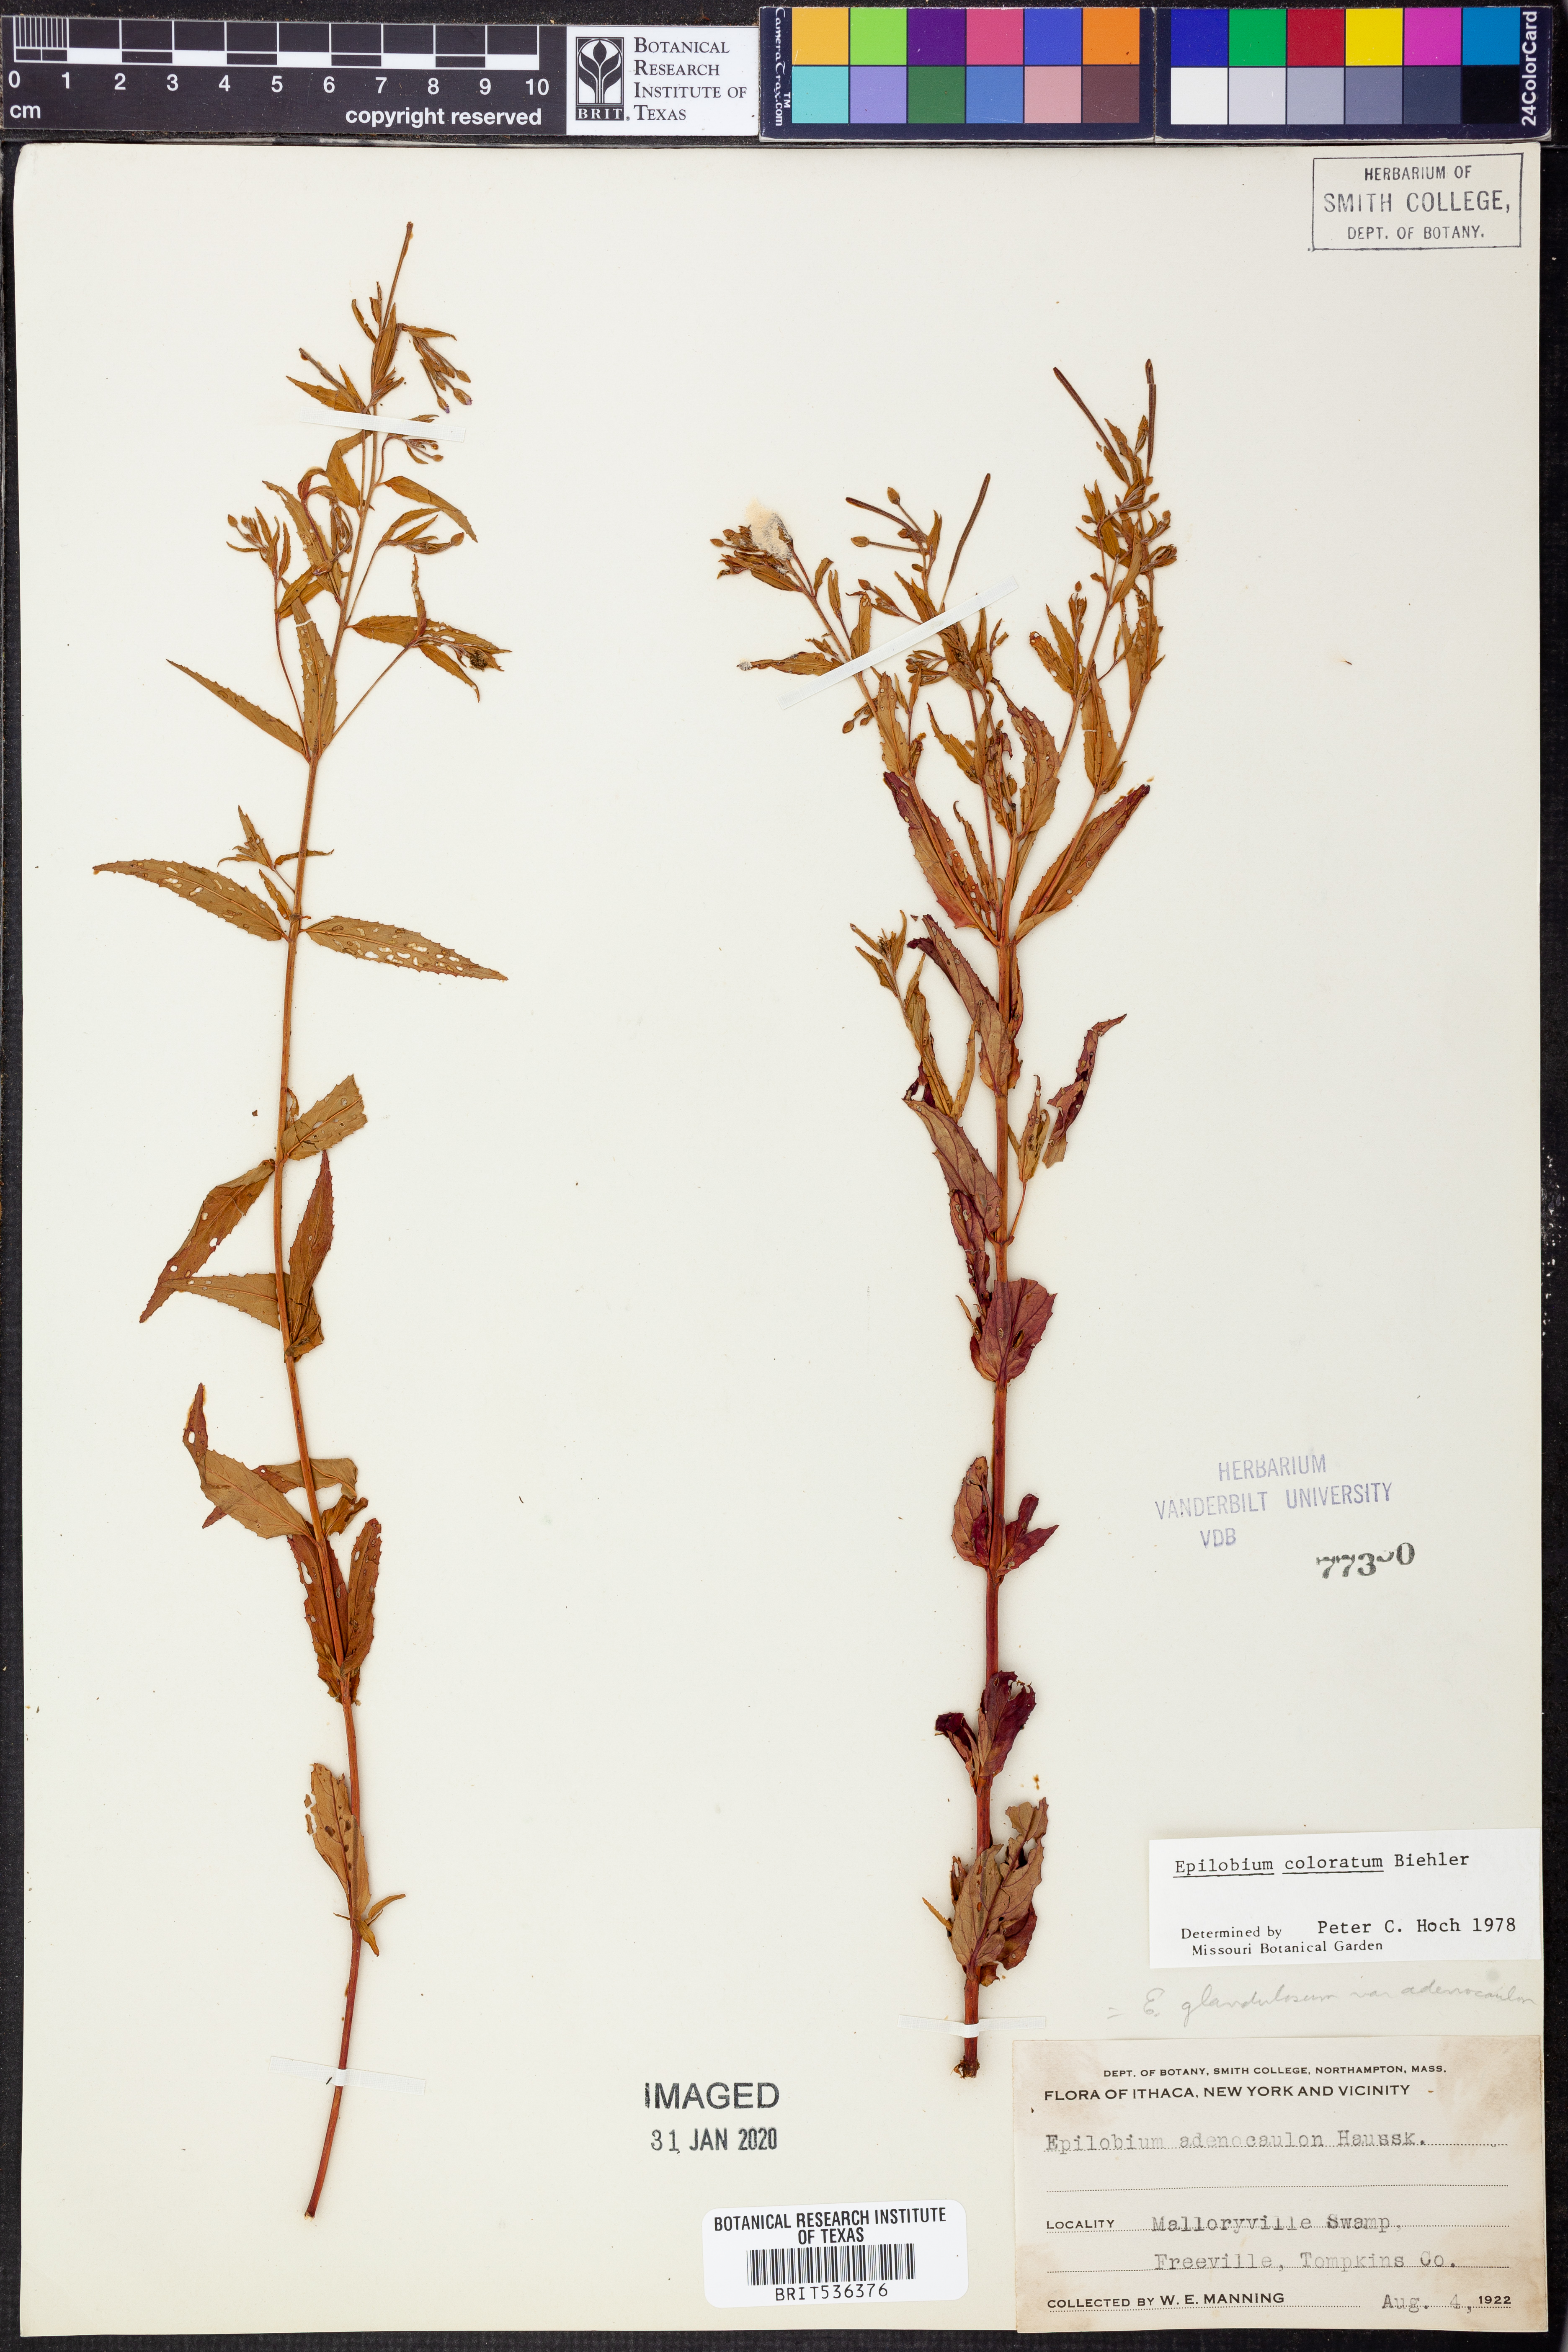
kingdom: Plantae
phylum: Tracheophyta
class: Magnoliopsida
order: Myrtales
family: Onagraceae
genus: Epilobium
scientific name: Epilobium coloratum
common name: Bronze willowherb
